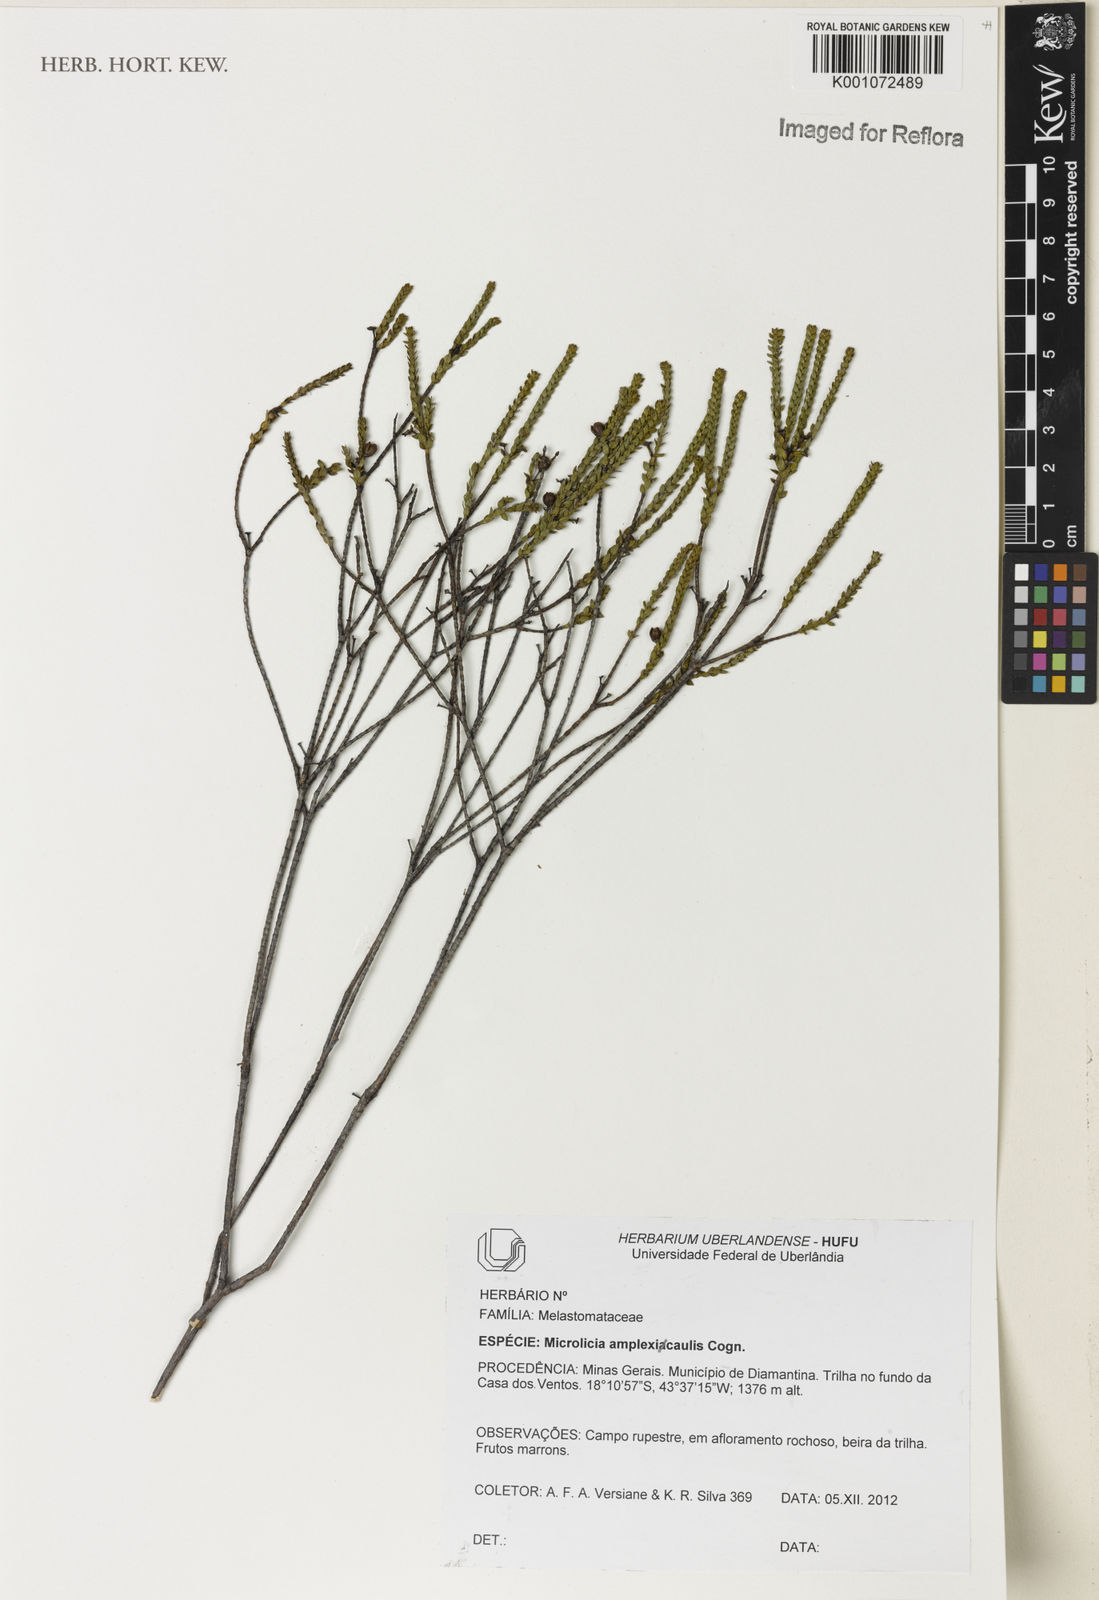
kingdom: Plantae
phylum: Tracheophyta
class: Magnoliopsida
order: Myrtales
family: Melastomataceae
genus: Microlicia
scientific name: Microlicia amplexicaulis
